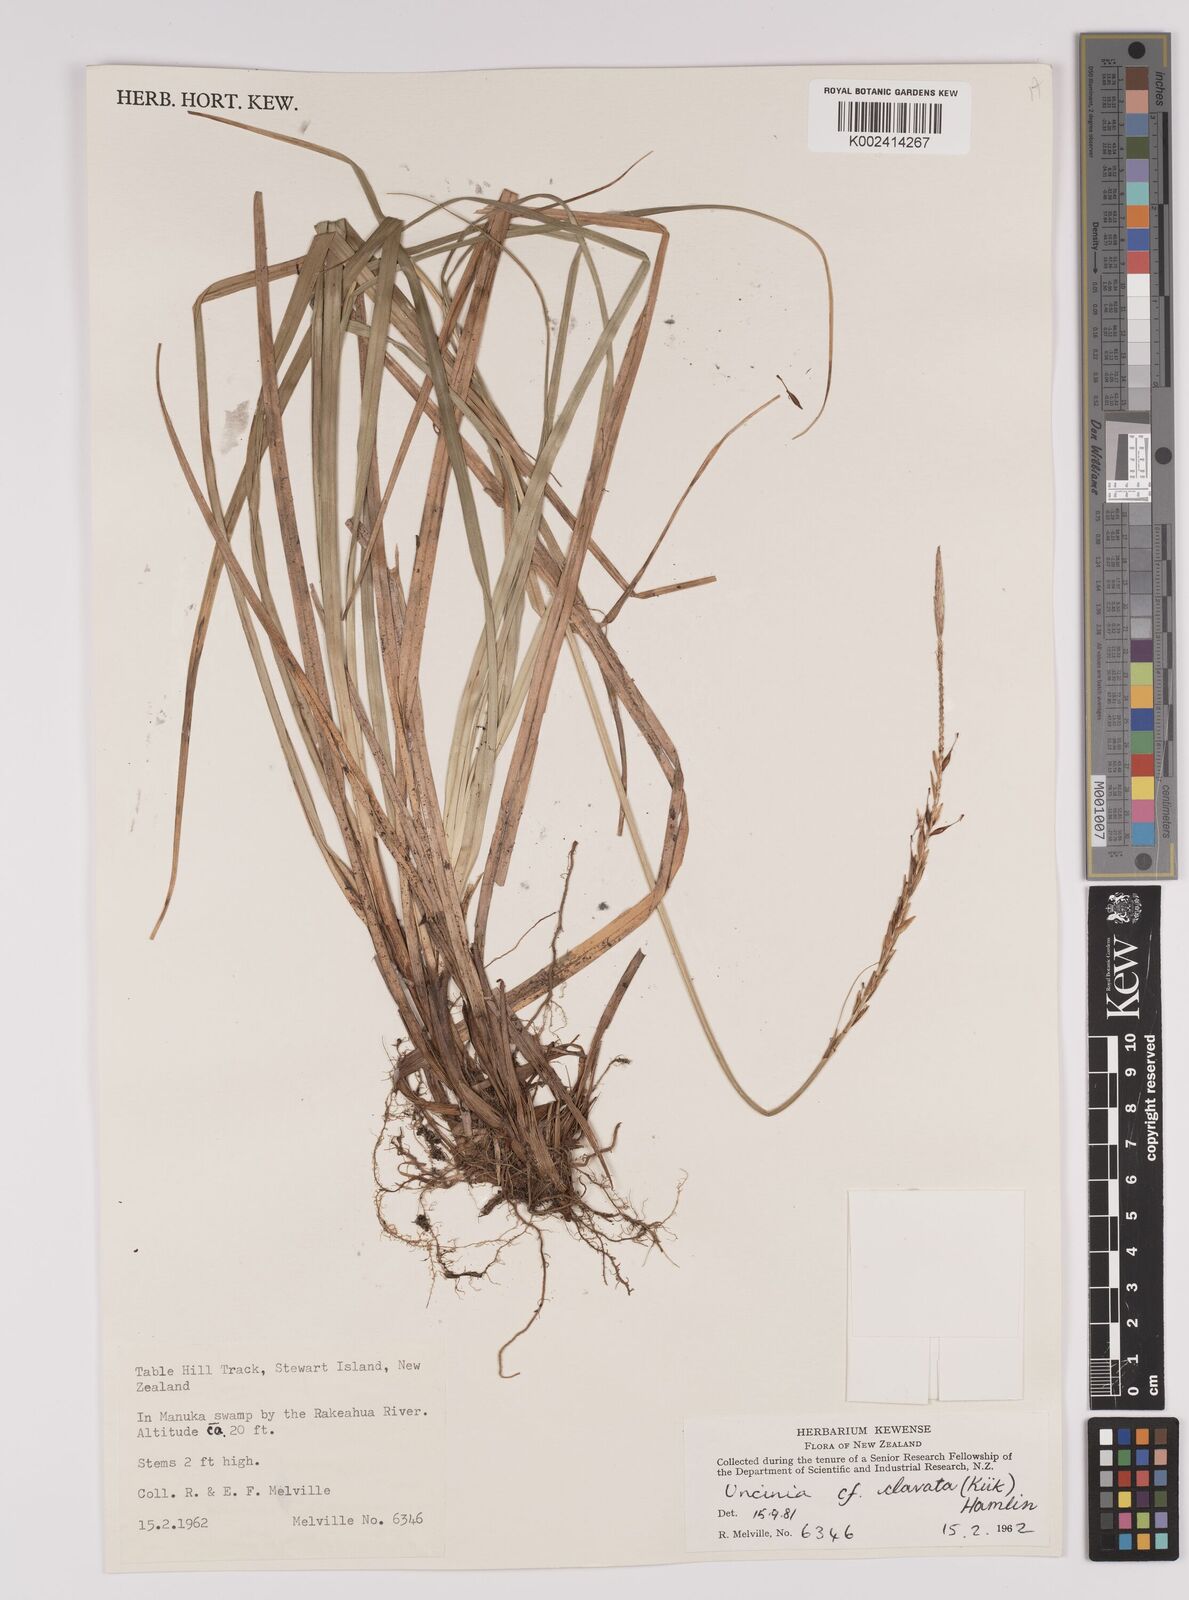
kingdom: Plantae
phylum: Tracheophyta
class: Liliopsida
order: Poales
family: Cyperaceae
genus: Carex
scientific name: Carex corynoidea
